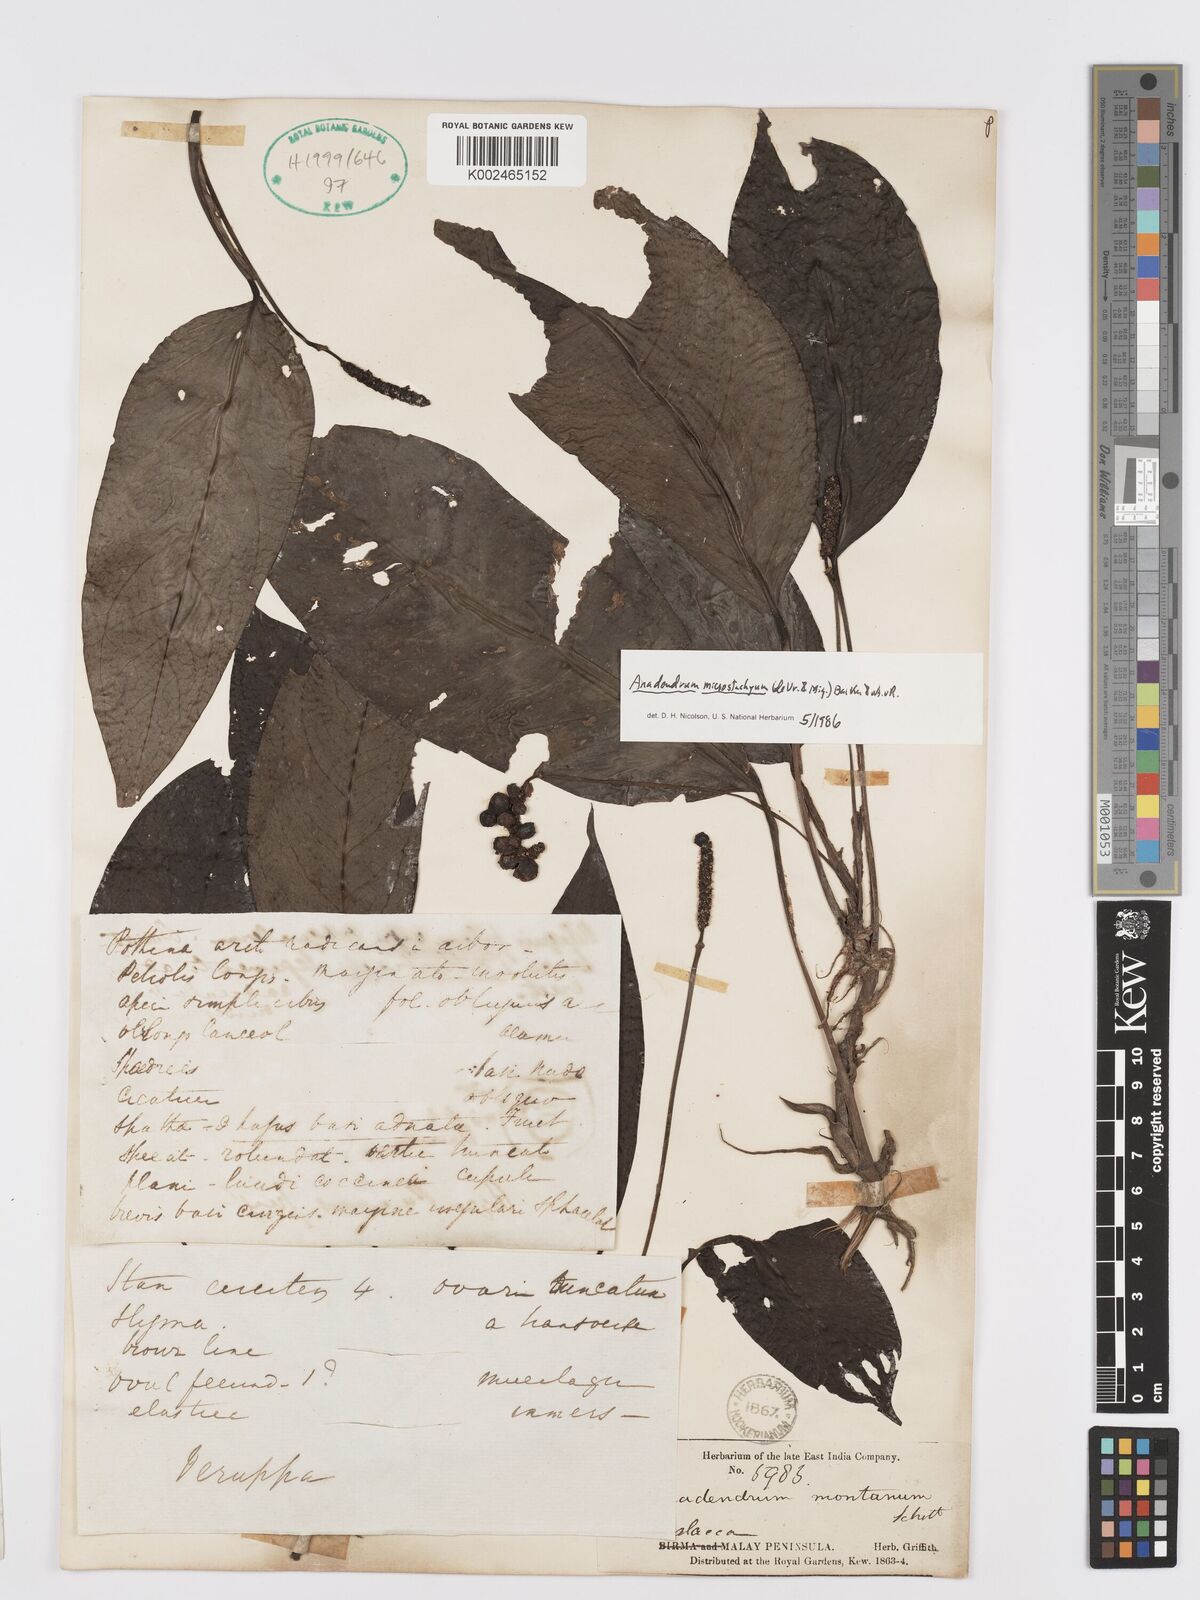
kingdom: Plantae
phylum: Tracheophyta
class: Liliopsida
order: Alismatales
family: Araceae
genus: Anadendrum
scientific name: Anadendrum microstachyum
